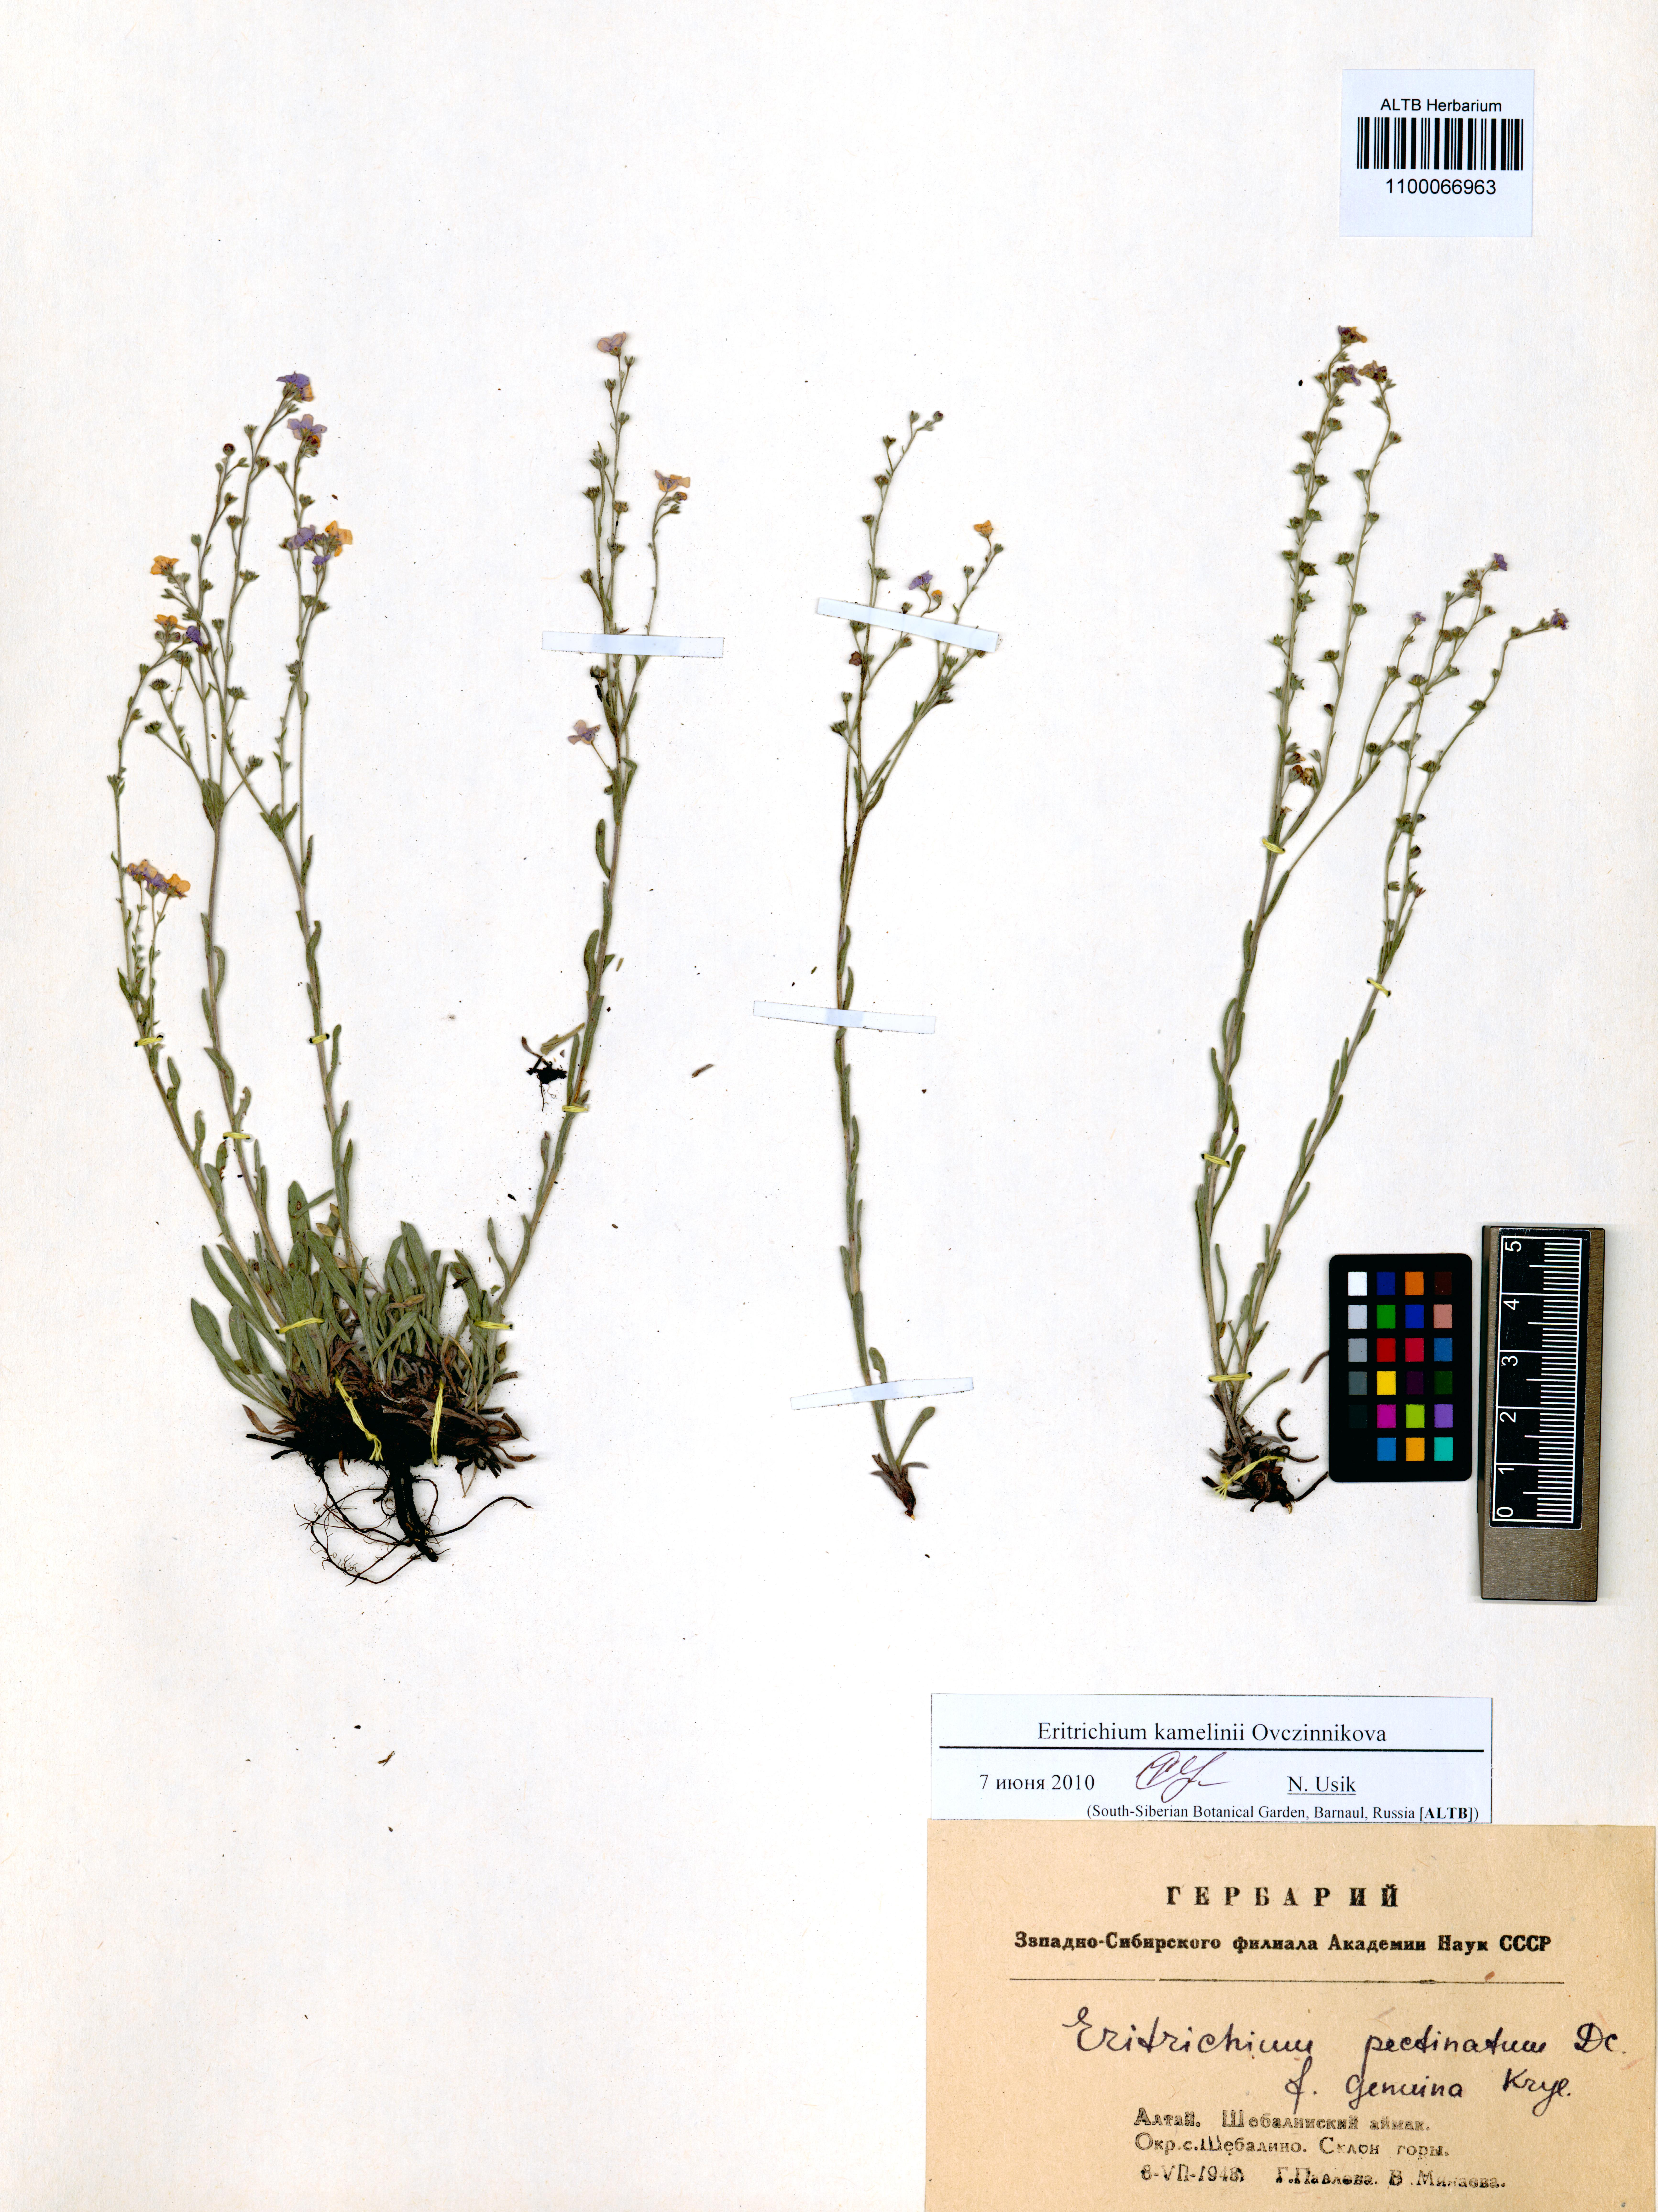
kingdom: Plantae
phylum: Tracheophyta
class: Magnoliopsida
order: Boraginales
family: Boraginaceae
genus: Eritrichium
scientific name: Eritrichium kamelinii
